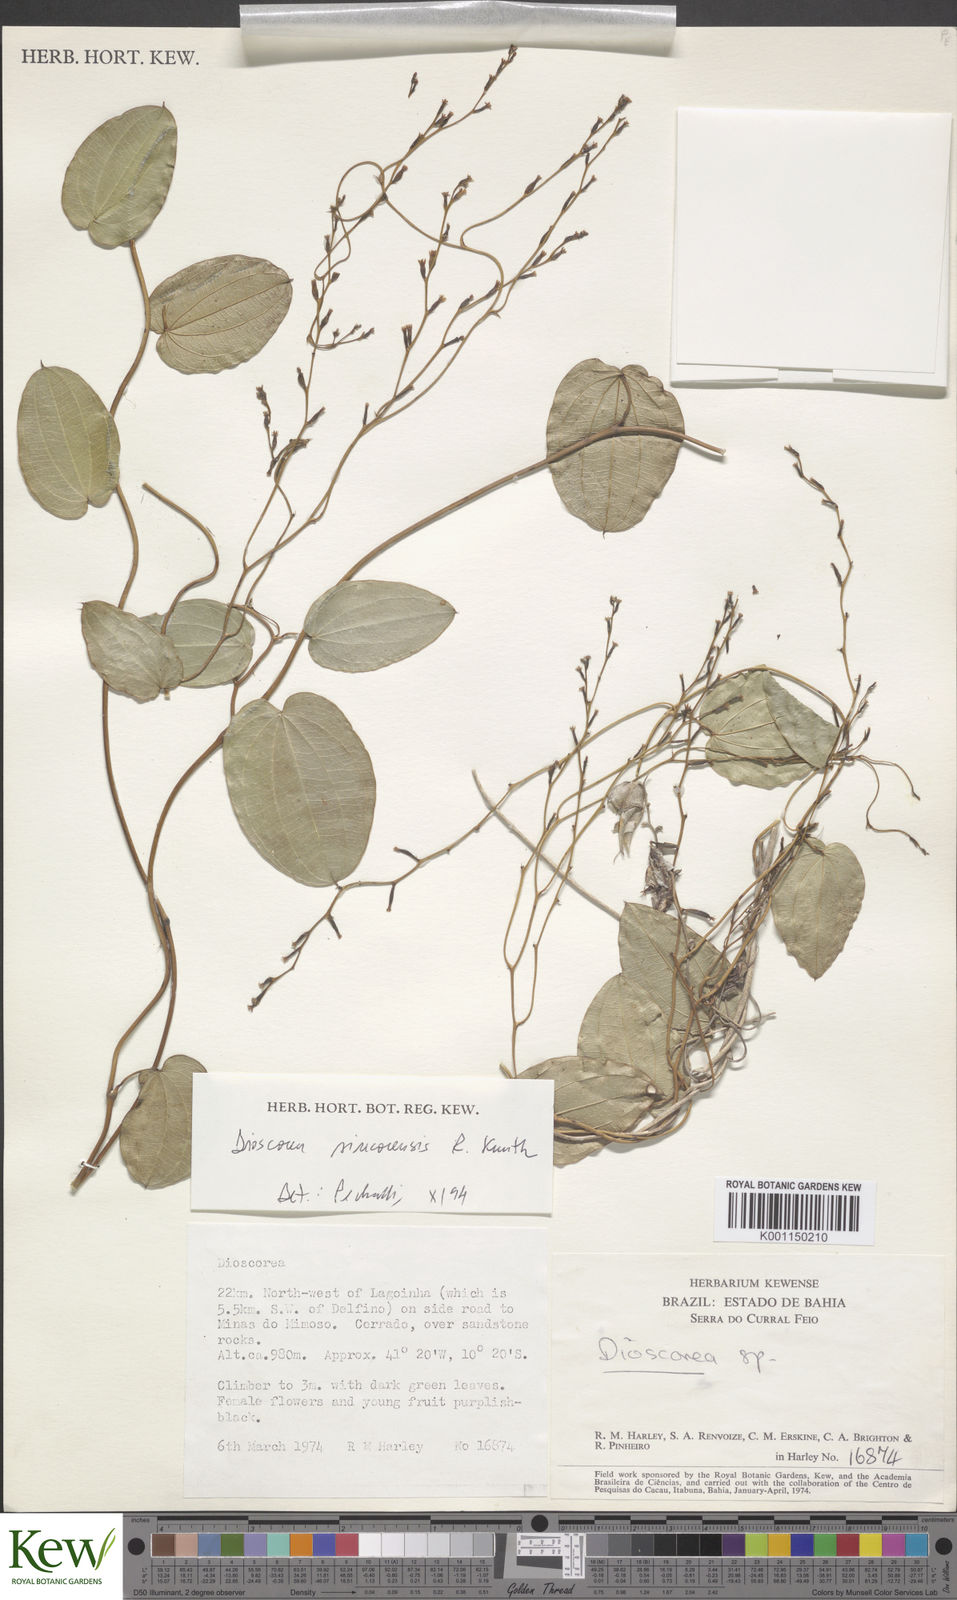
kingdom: Plantae
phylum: Tracheophyta
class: Liliopsida
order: Dioscoreales
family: Dioscoreaceae
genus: Dioscorea
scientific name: Dioscorea sincorensis
